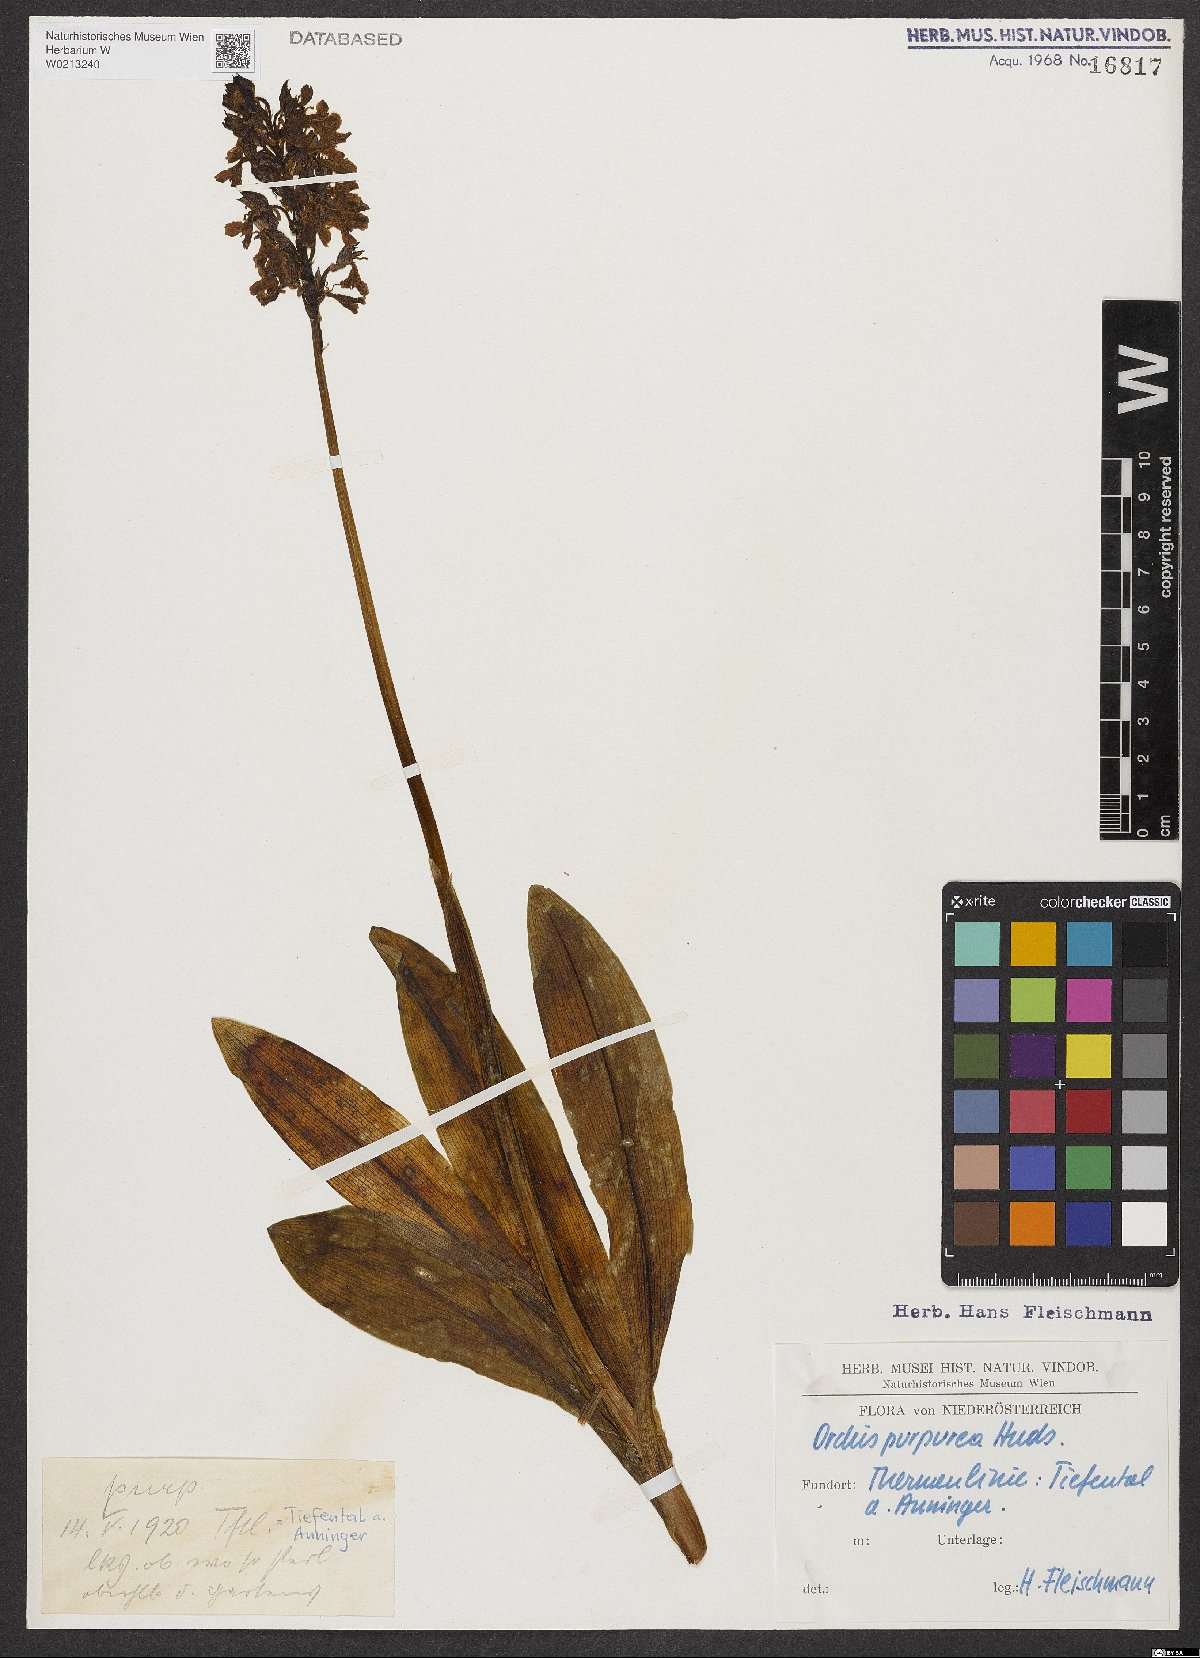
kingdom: Plantae
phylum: Tracheophyta
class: Liliopsida
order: Asparagales
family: Orchidaceae
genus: Orchis
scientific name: Orchis purpurea
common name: Lady orchid
